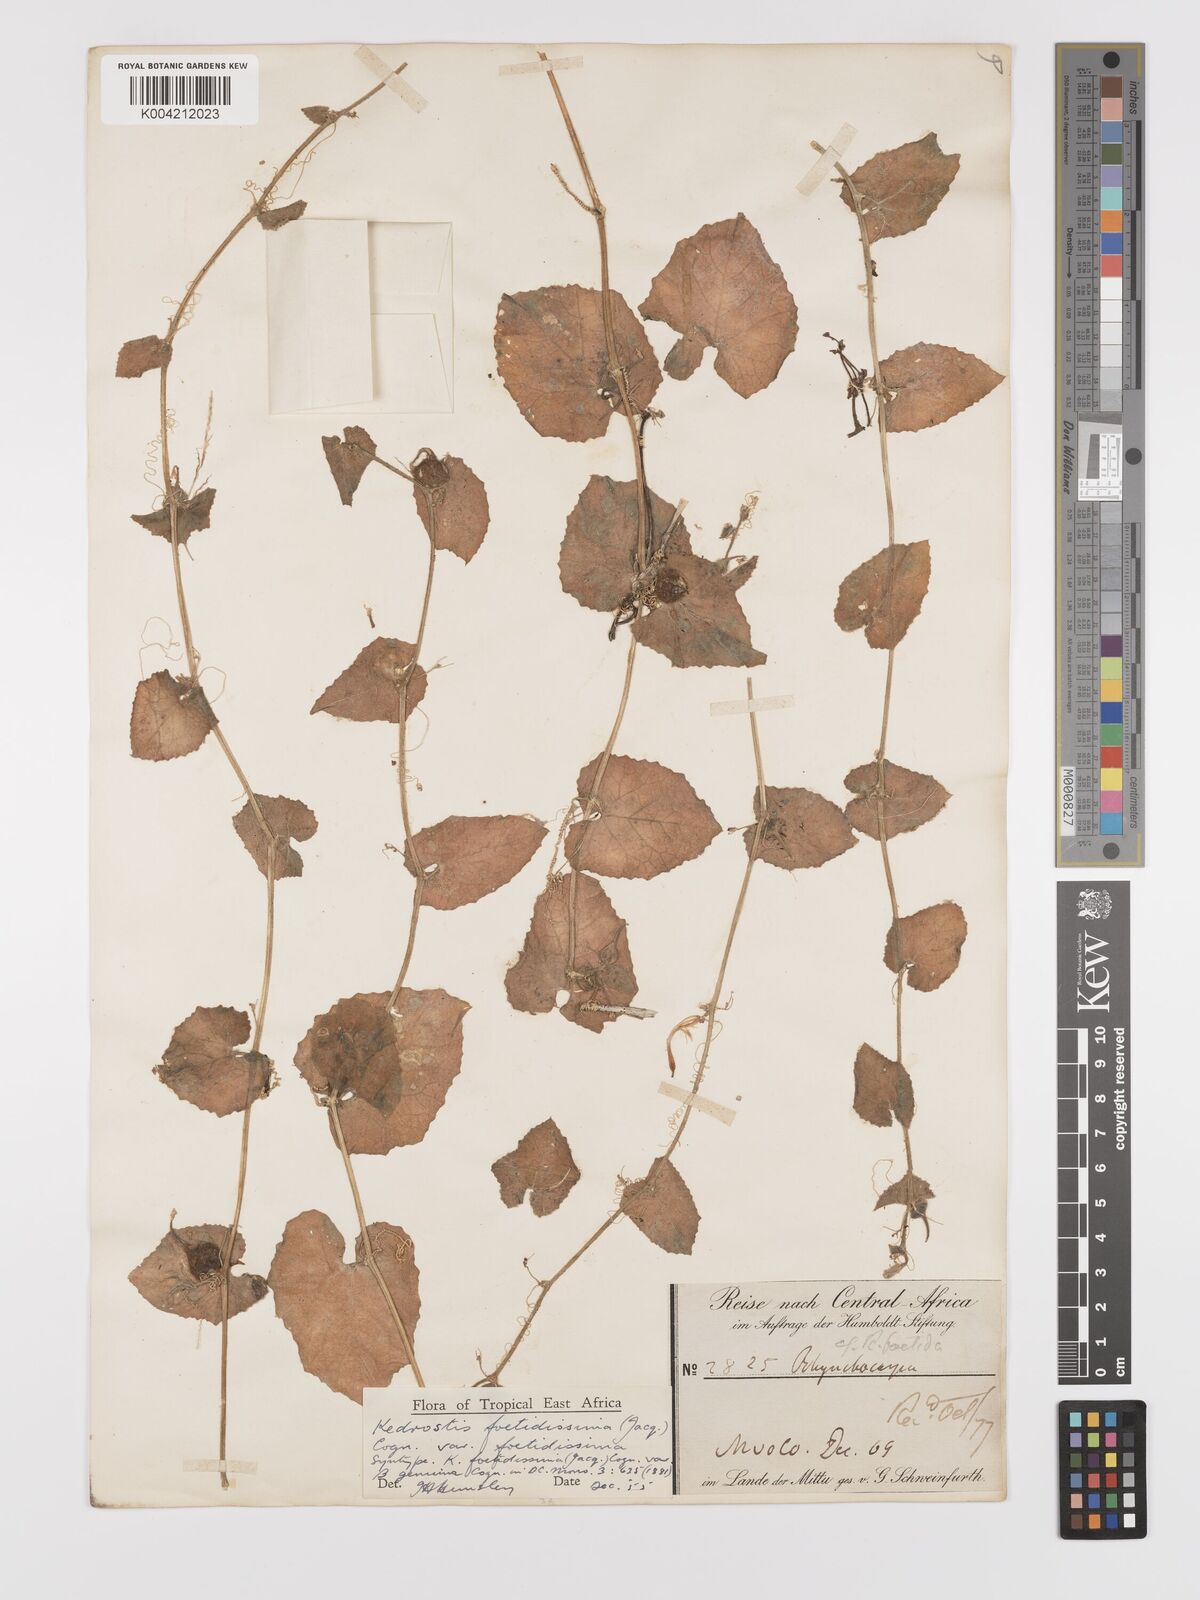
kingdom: Plantae
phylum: Tracheophyta
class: Magnoliopsida
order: Cucurbitales
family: Cucurbitaceae
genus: Kedrostis
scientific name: Kedrostis foetidissima
